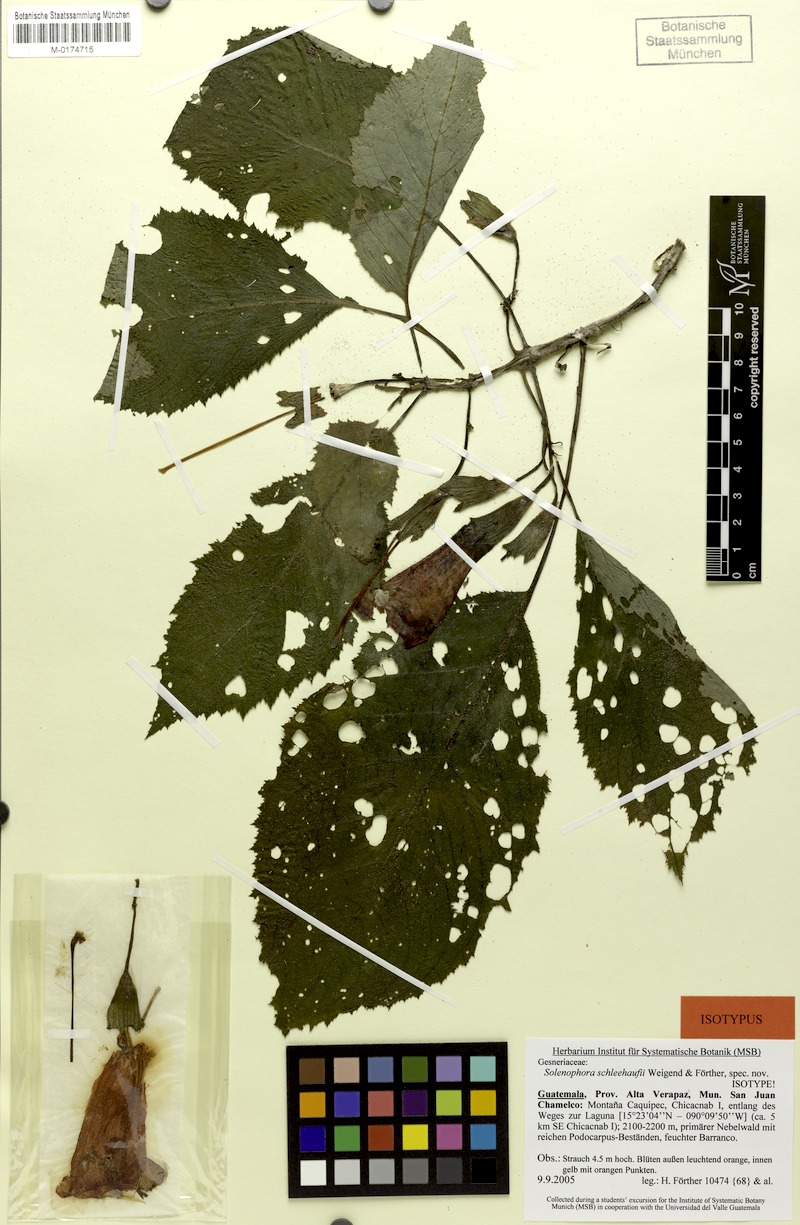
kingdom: Plantae
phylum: Tracheophyta
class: Magnoliopsida
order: Lamiales
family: Gesneriaceae
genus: Solenophora
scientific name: Solenophora schleehaufii
